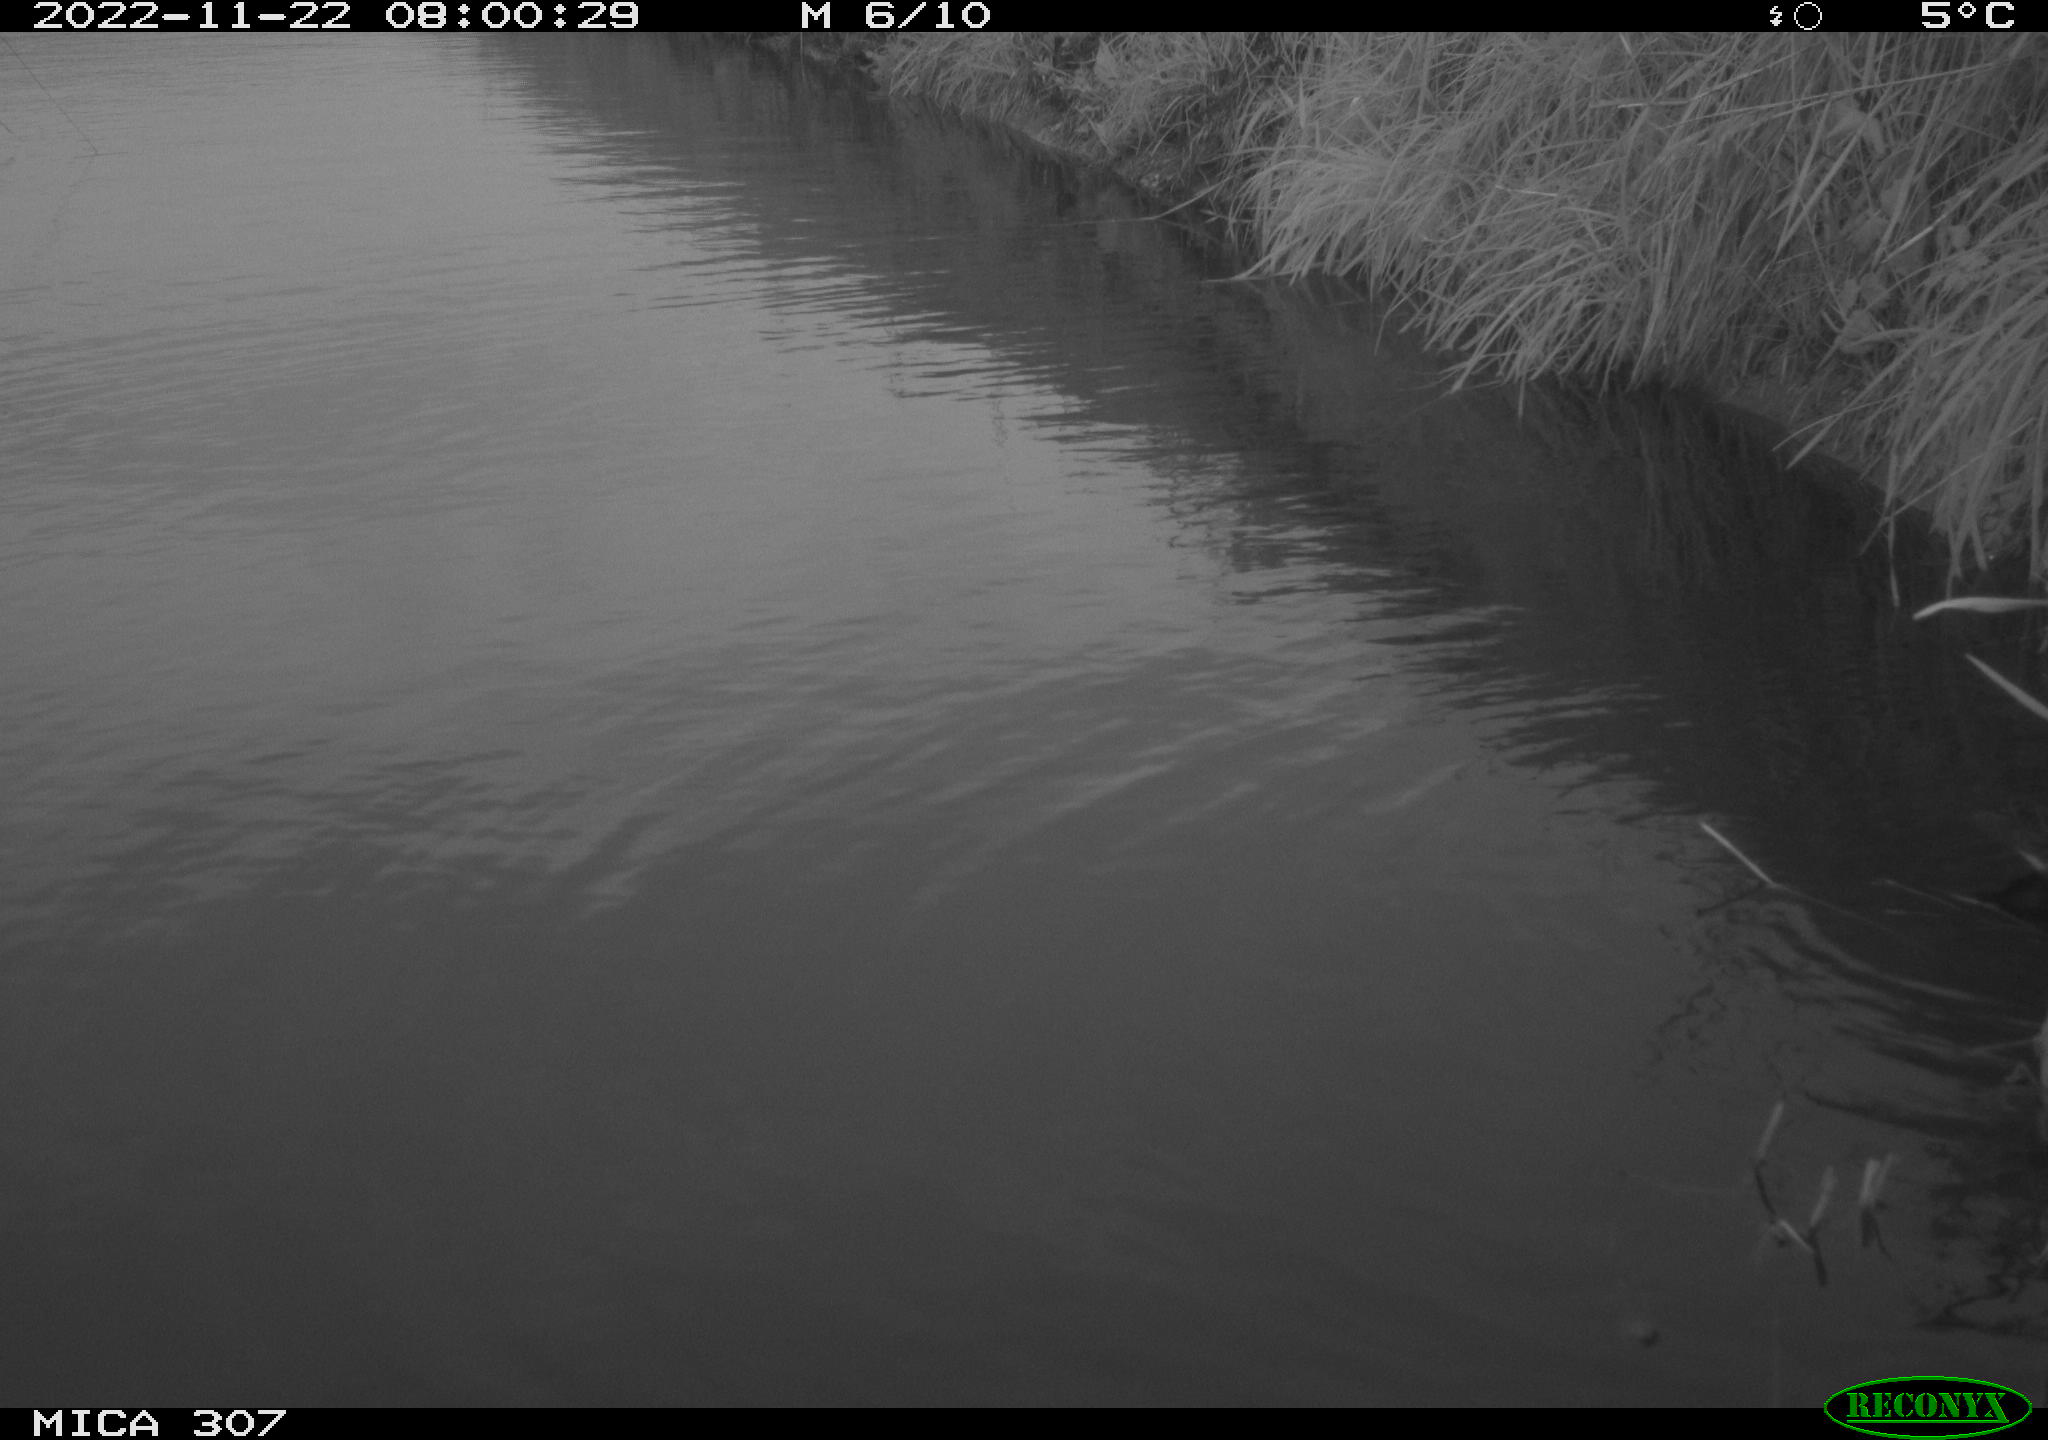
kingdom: Animalia
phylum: Chordata
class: Aves
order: Gruiformes
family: Rallidae
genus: Gallinula
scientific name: Gallinula chloropus
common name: Common moorhen
